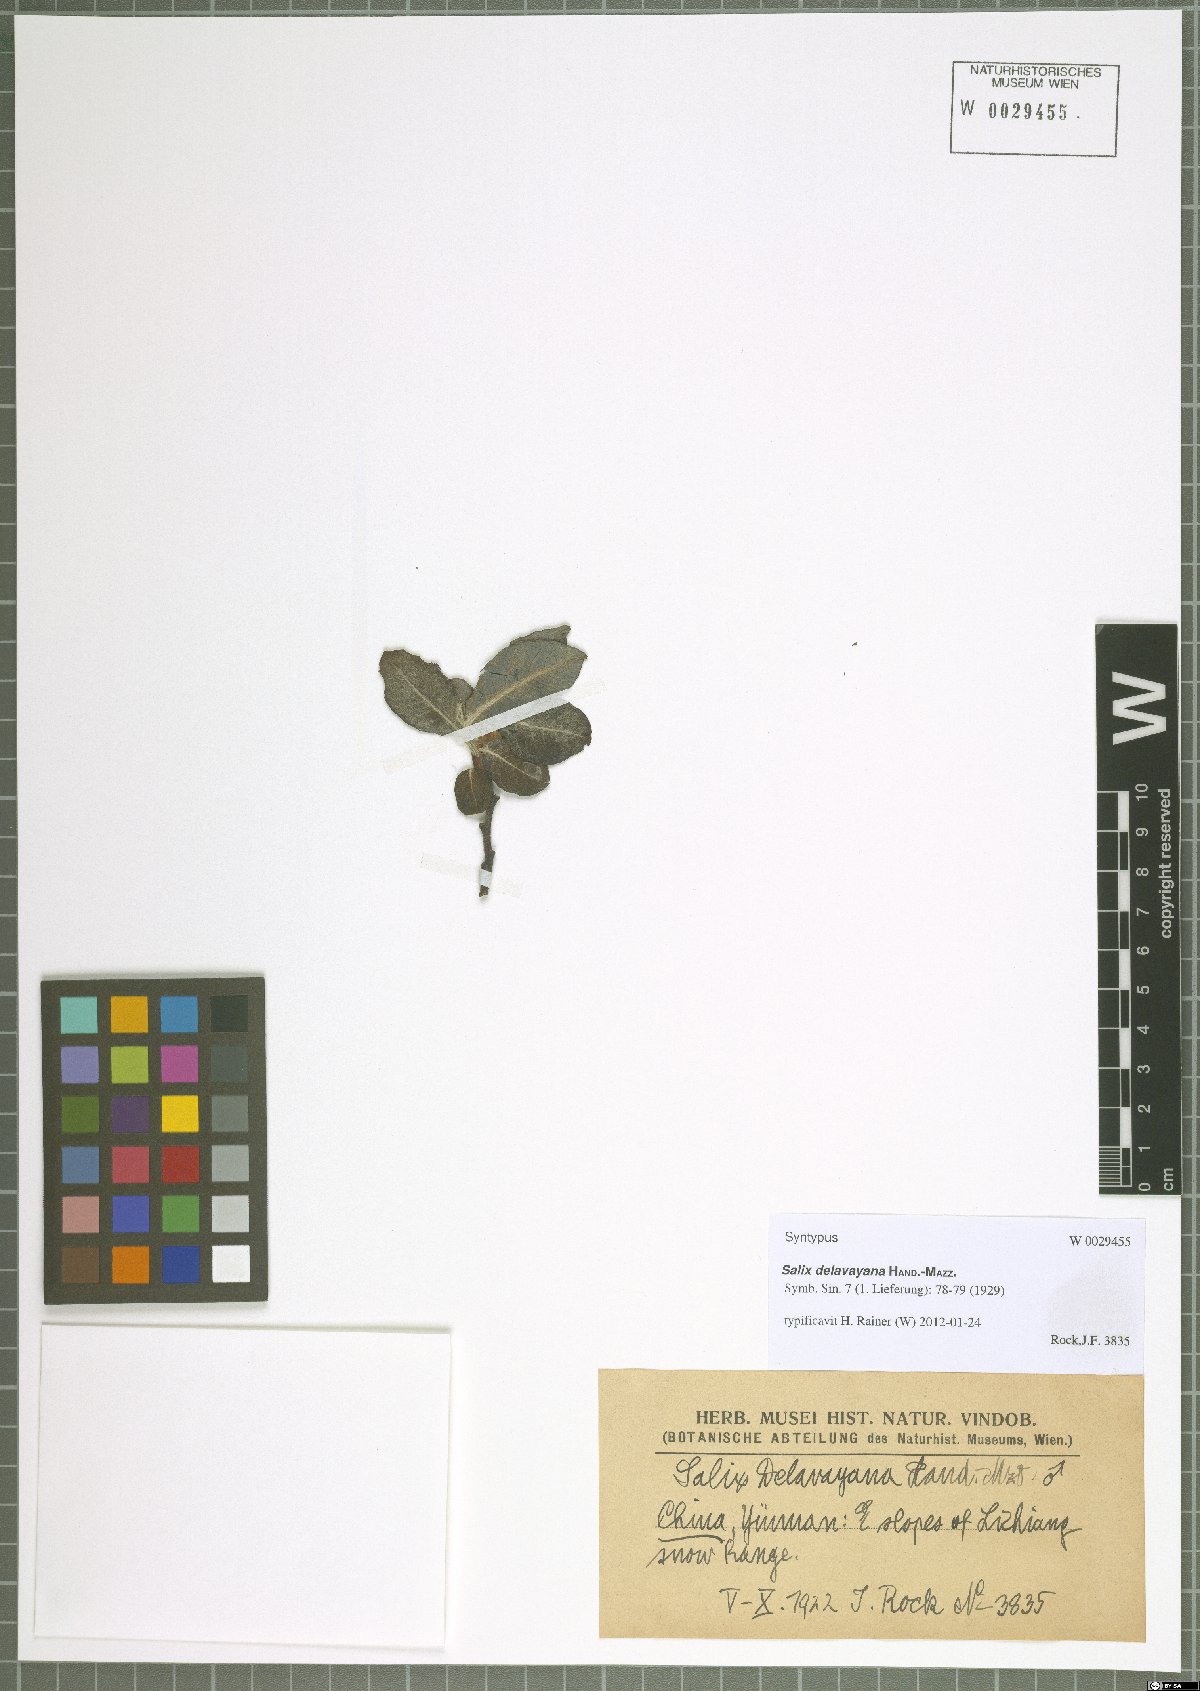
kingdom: Plantae
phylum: Tracheophyta
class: Magnoliopsida
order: Malpighiales
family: Salicaceae
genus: Salix
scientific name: Salix delavayana
